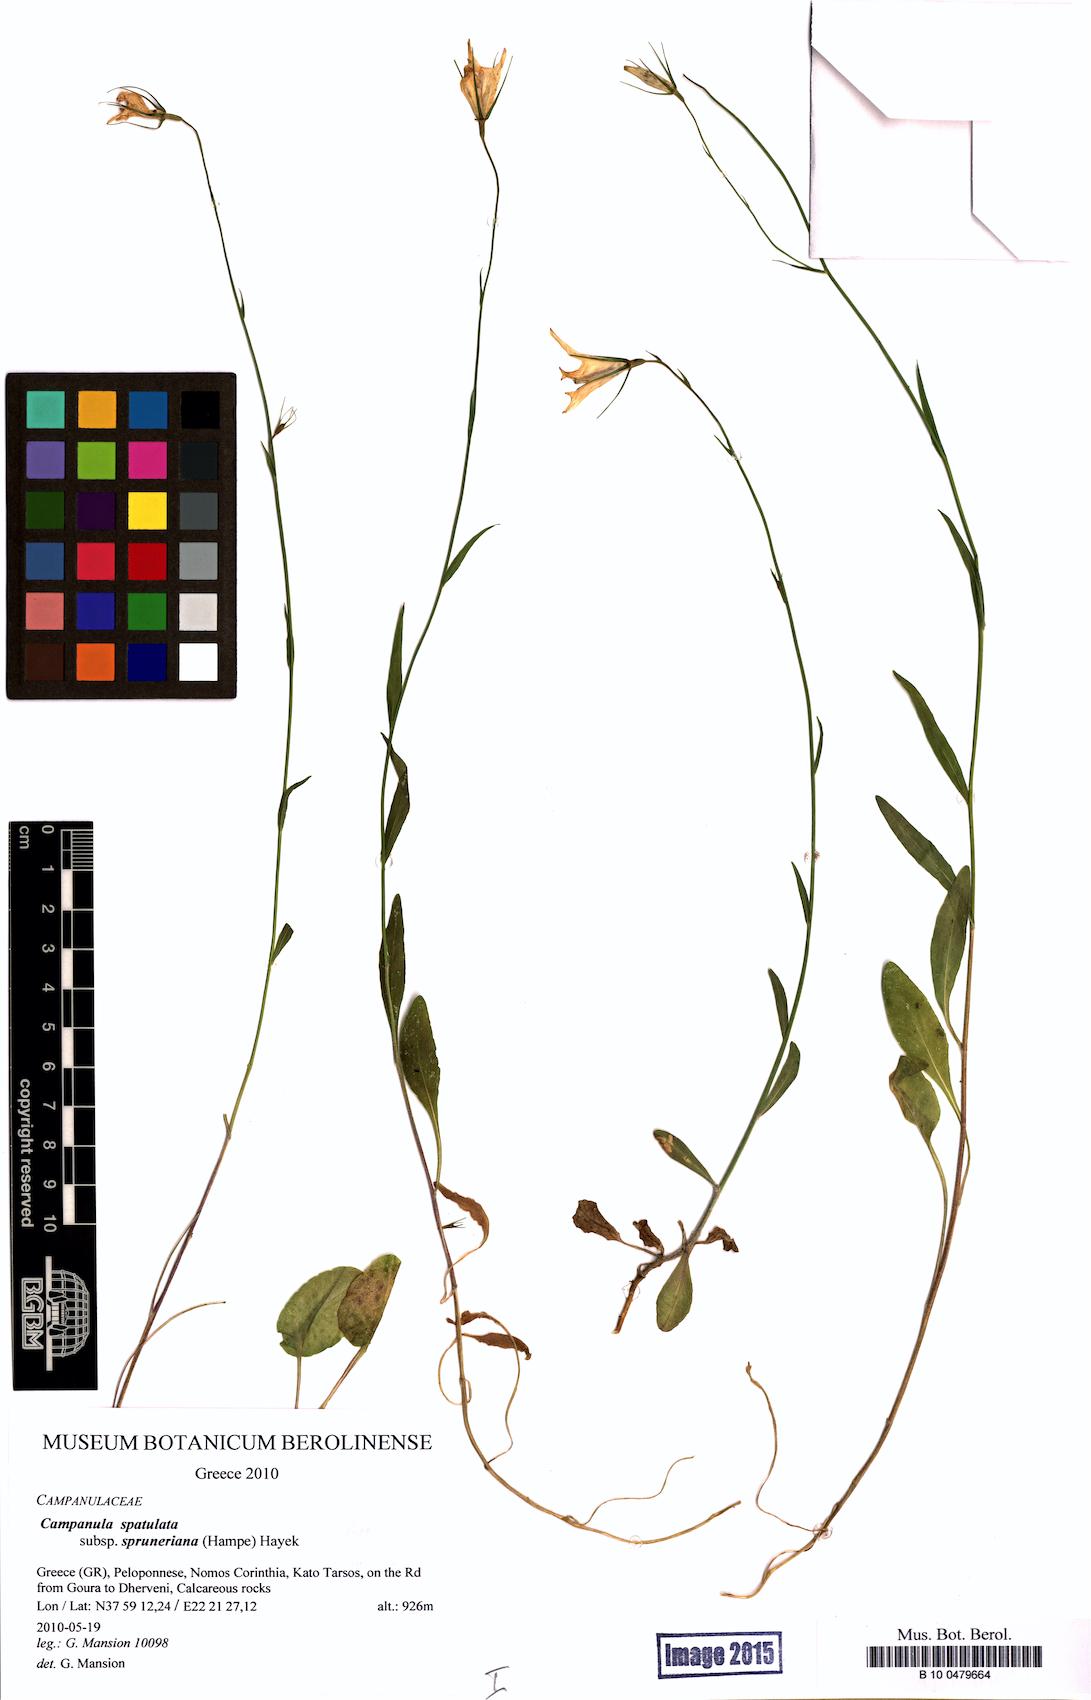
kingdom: Plantae
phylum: Tracheophyta
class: Magnoliopsida
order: Asterales
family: Campanulaceae
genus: Campanula
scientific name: Campanula spatulata
